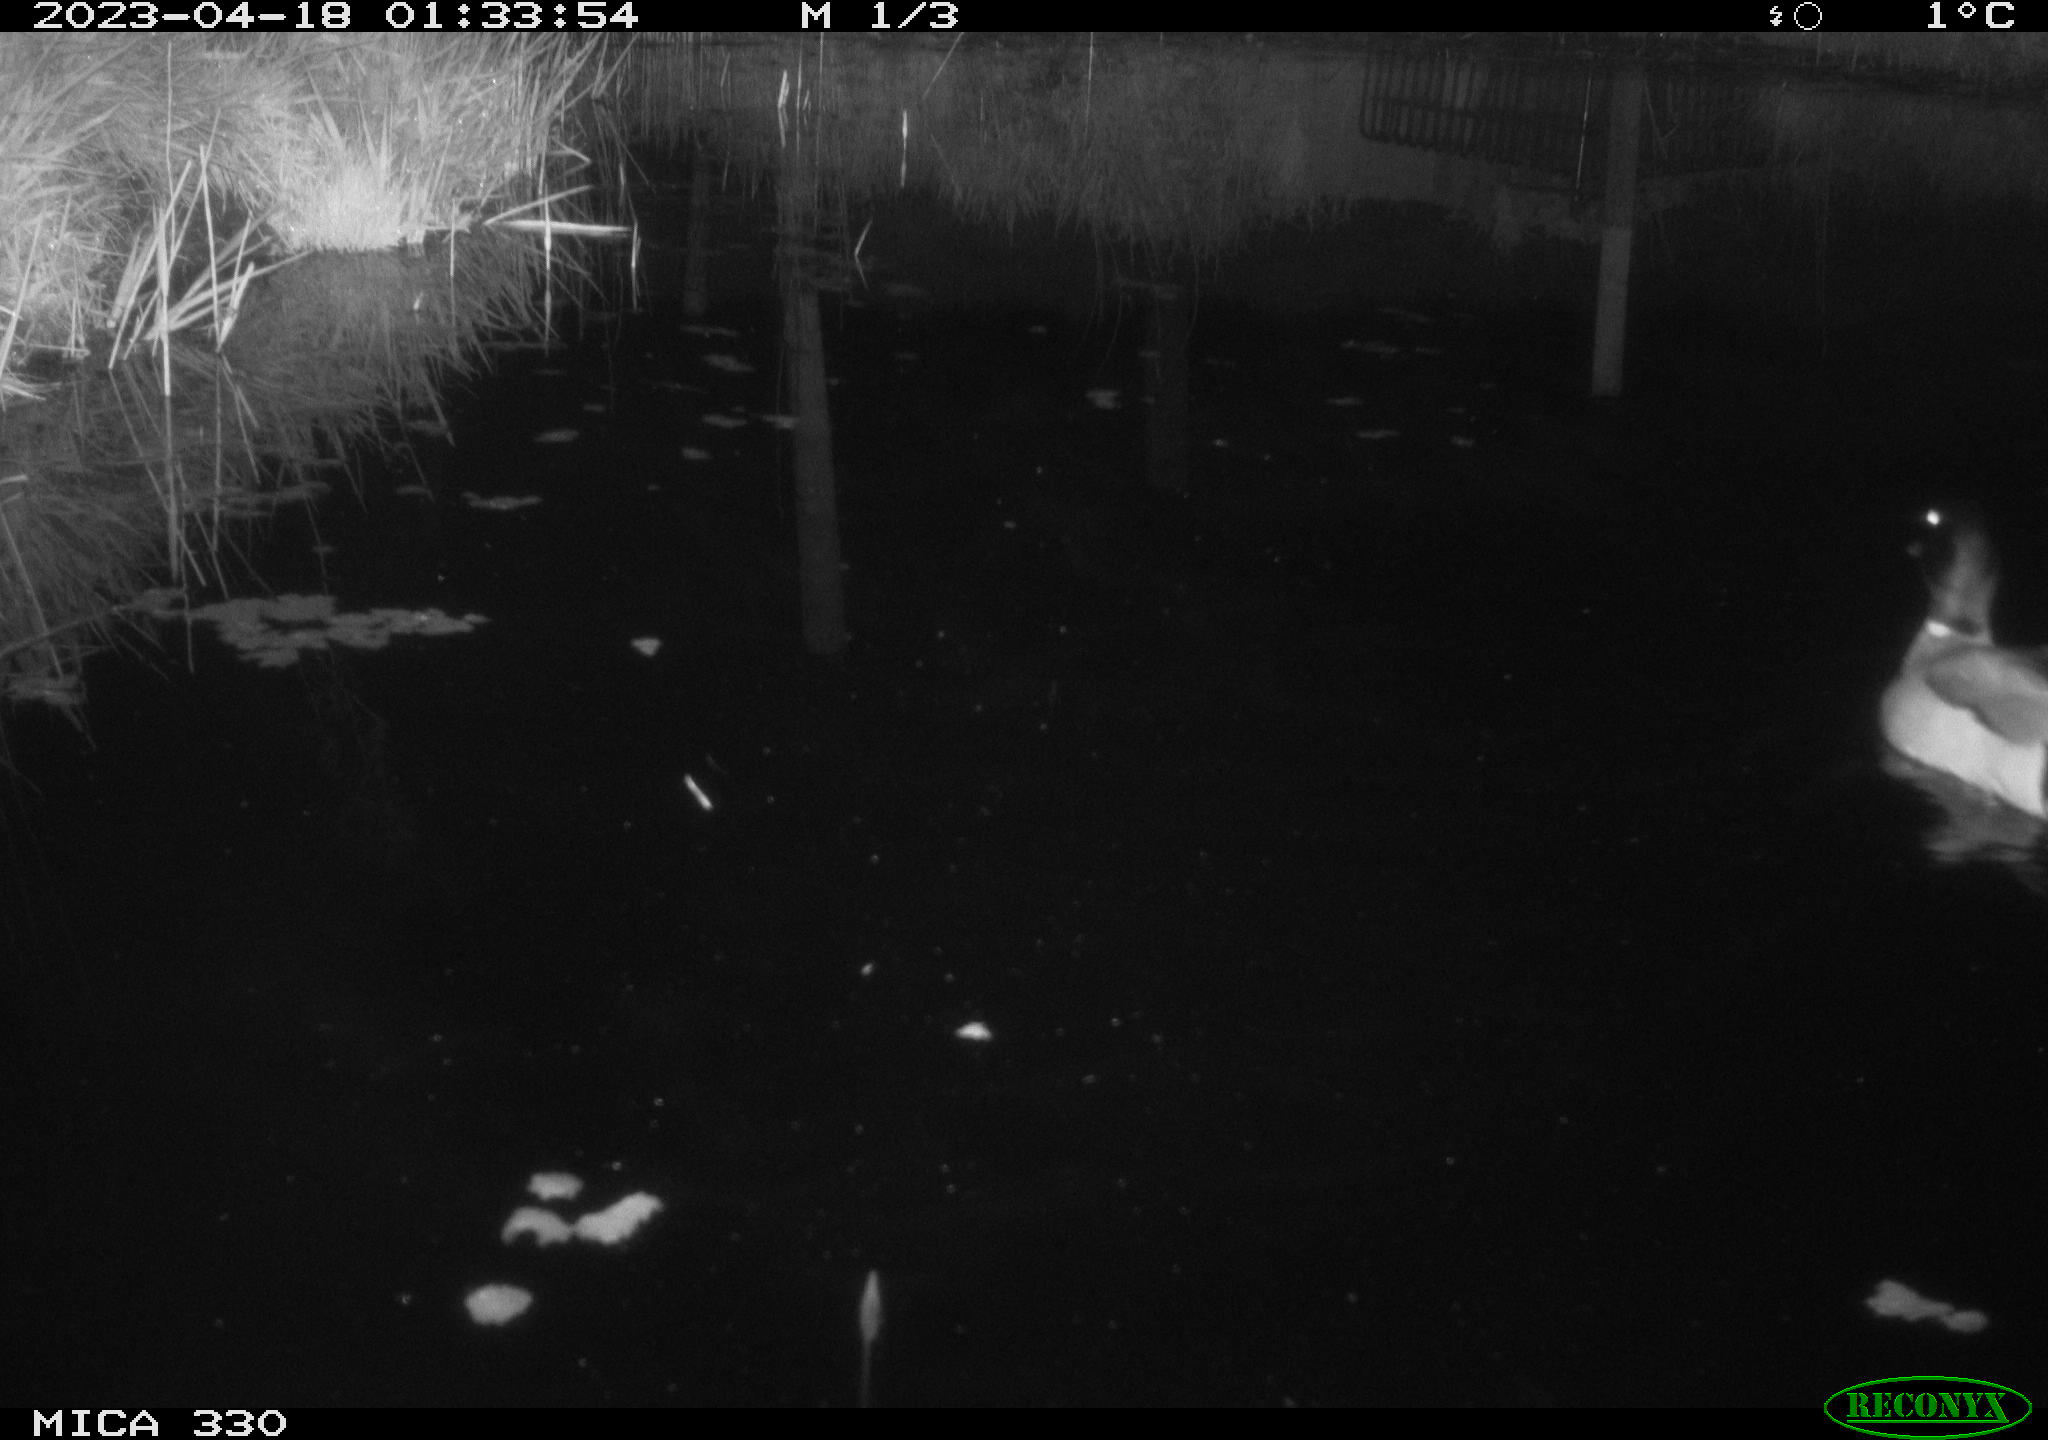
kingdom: Animalia
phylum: Chordata
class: Aves
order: Anseriformes
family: Anatidae
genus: Anas
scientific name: Anas platyrhynchos
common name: Mallard
